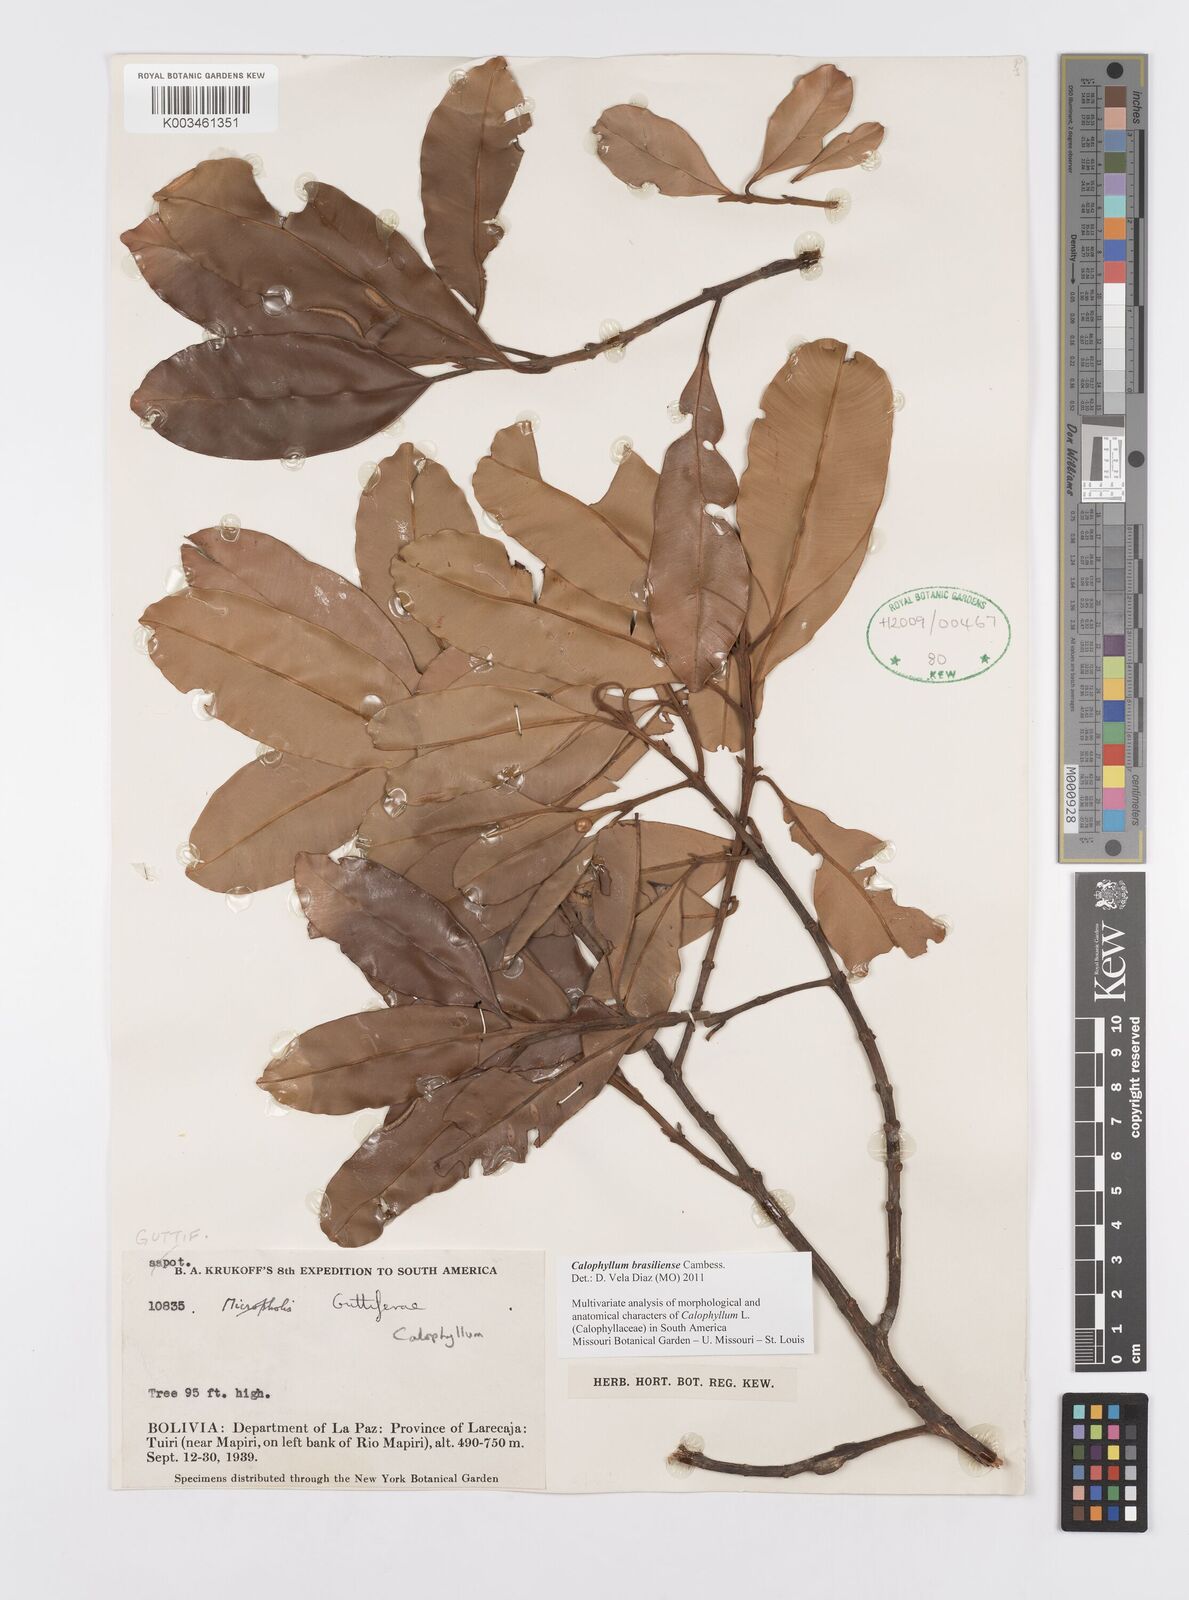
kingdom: Plantae
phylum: Tracheophyta
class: Magnoliopsida
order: Malpighiales
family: Calophyllaceae
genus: Calophyllum
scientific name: Calophyllum brasiliense
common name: Santa maria
